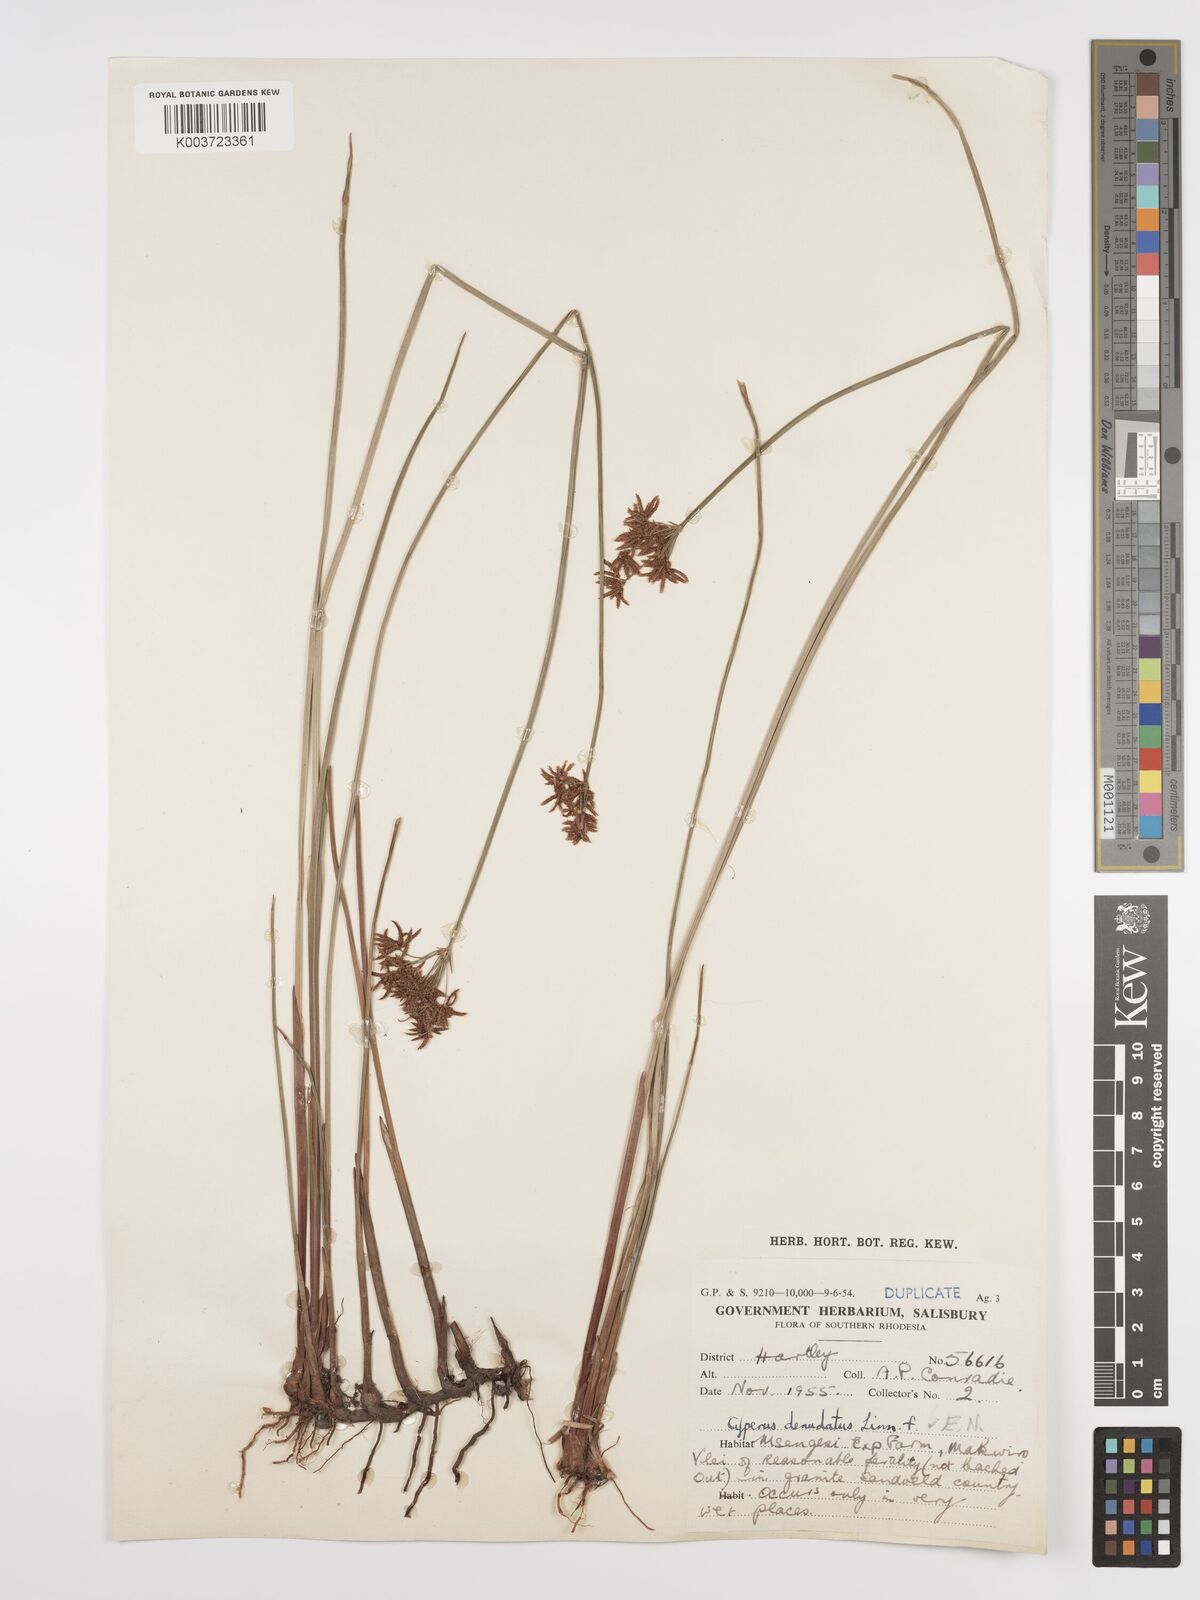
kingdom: Plantae
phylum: Tracheophyta
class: Liliopsida
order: Poales
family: Cyperaceae
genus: Cyperus
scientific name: Cyperus denudatus
